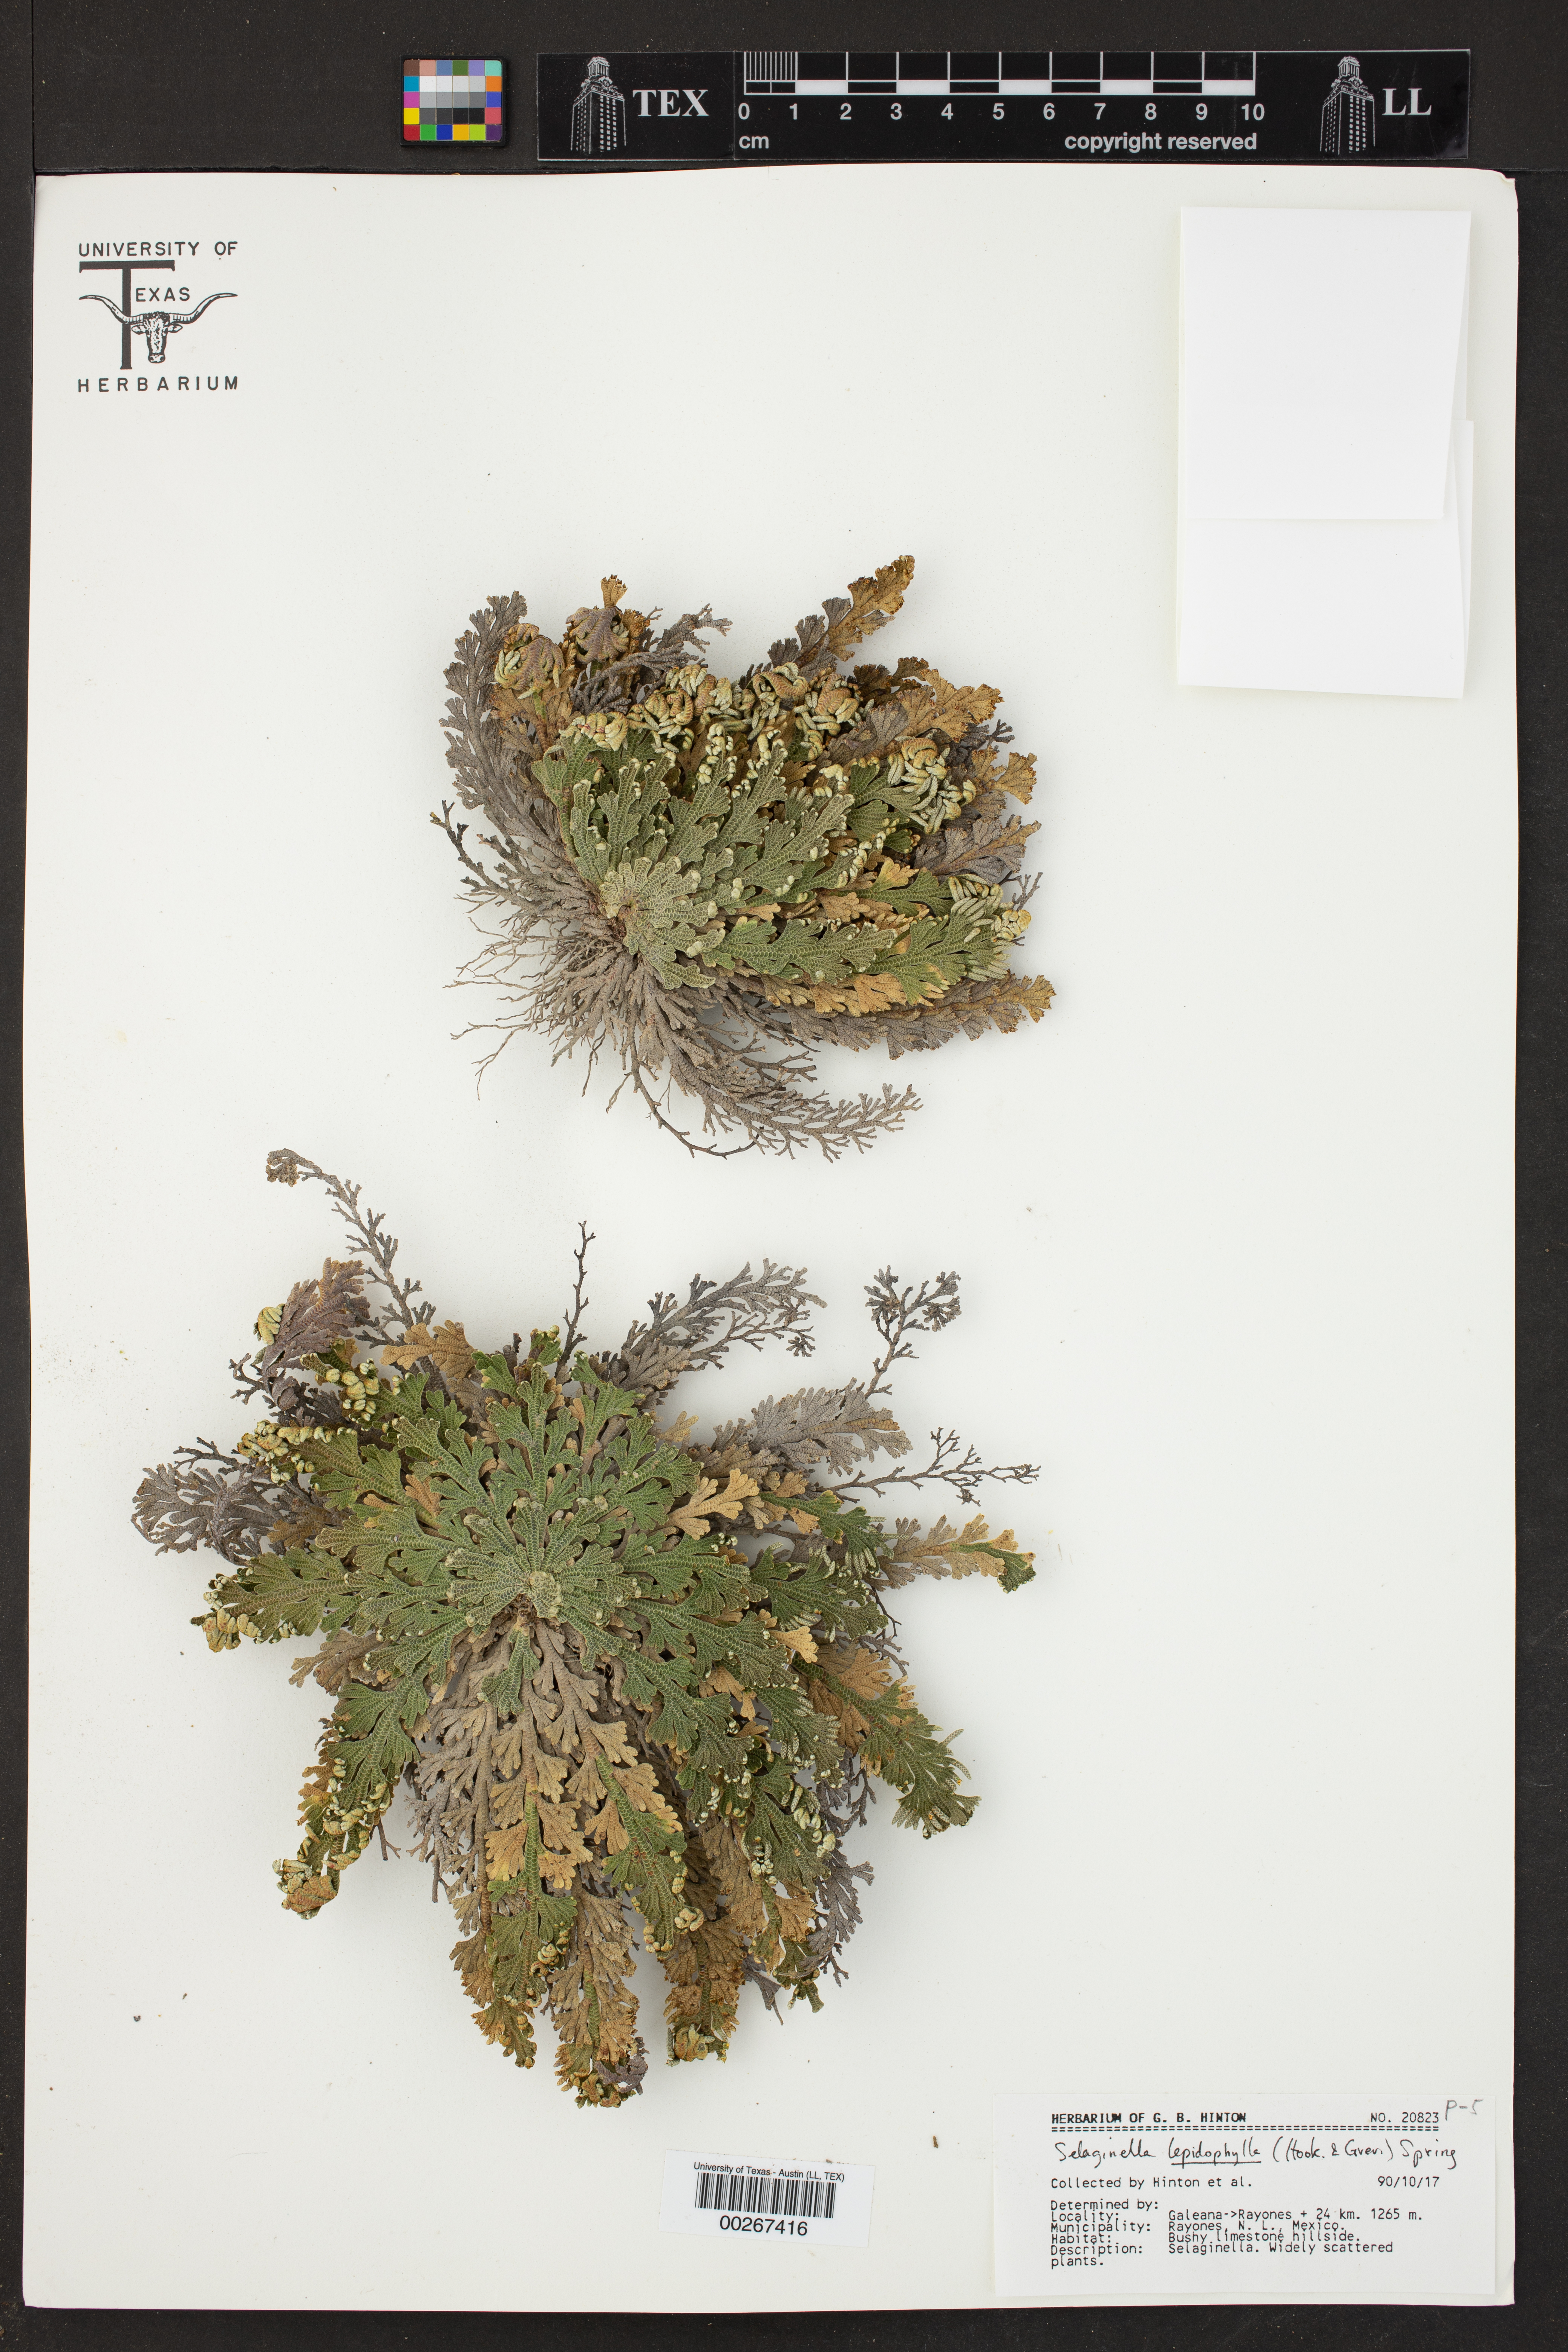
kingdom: Plantae
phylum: Tracheophyta
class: Lycopodiopsida
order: Selaginellales
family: Selaginellaceae
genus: Selaginella
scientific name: Selaginella lepidophylla
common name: Rose-of-jericho
